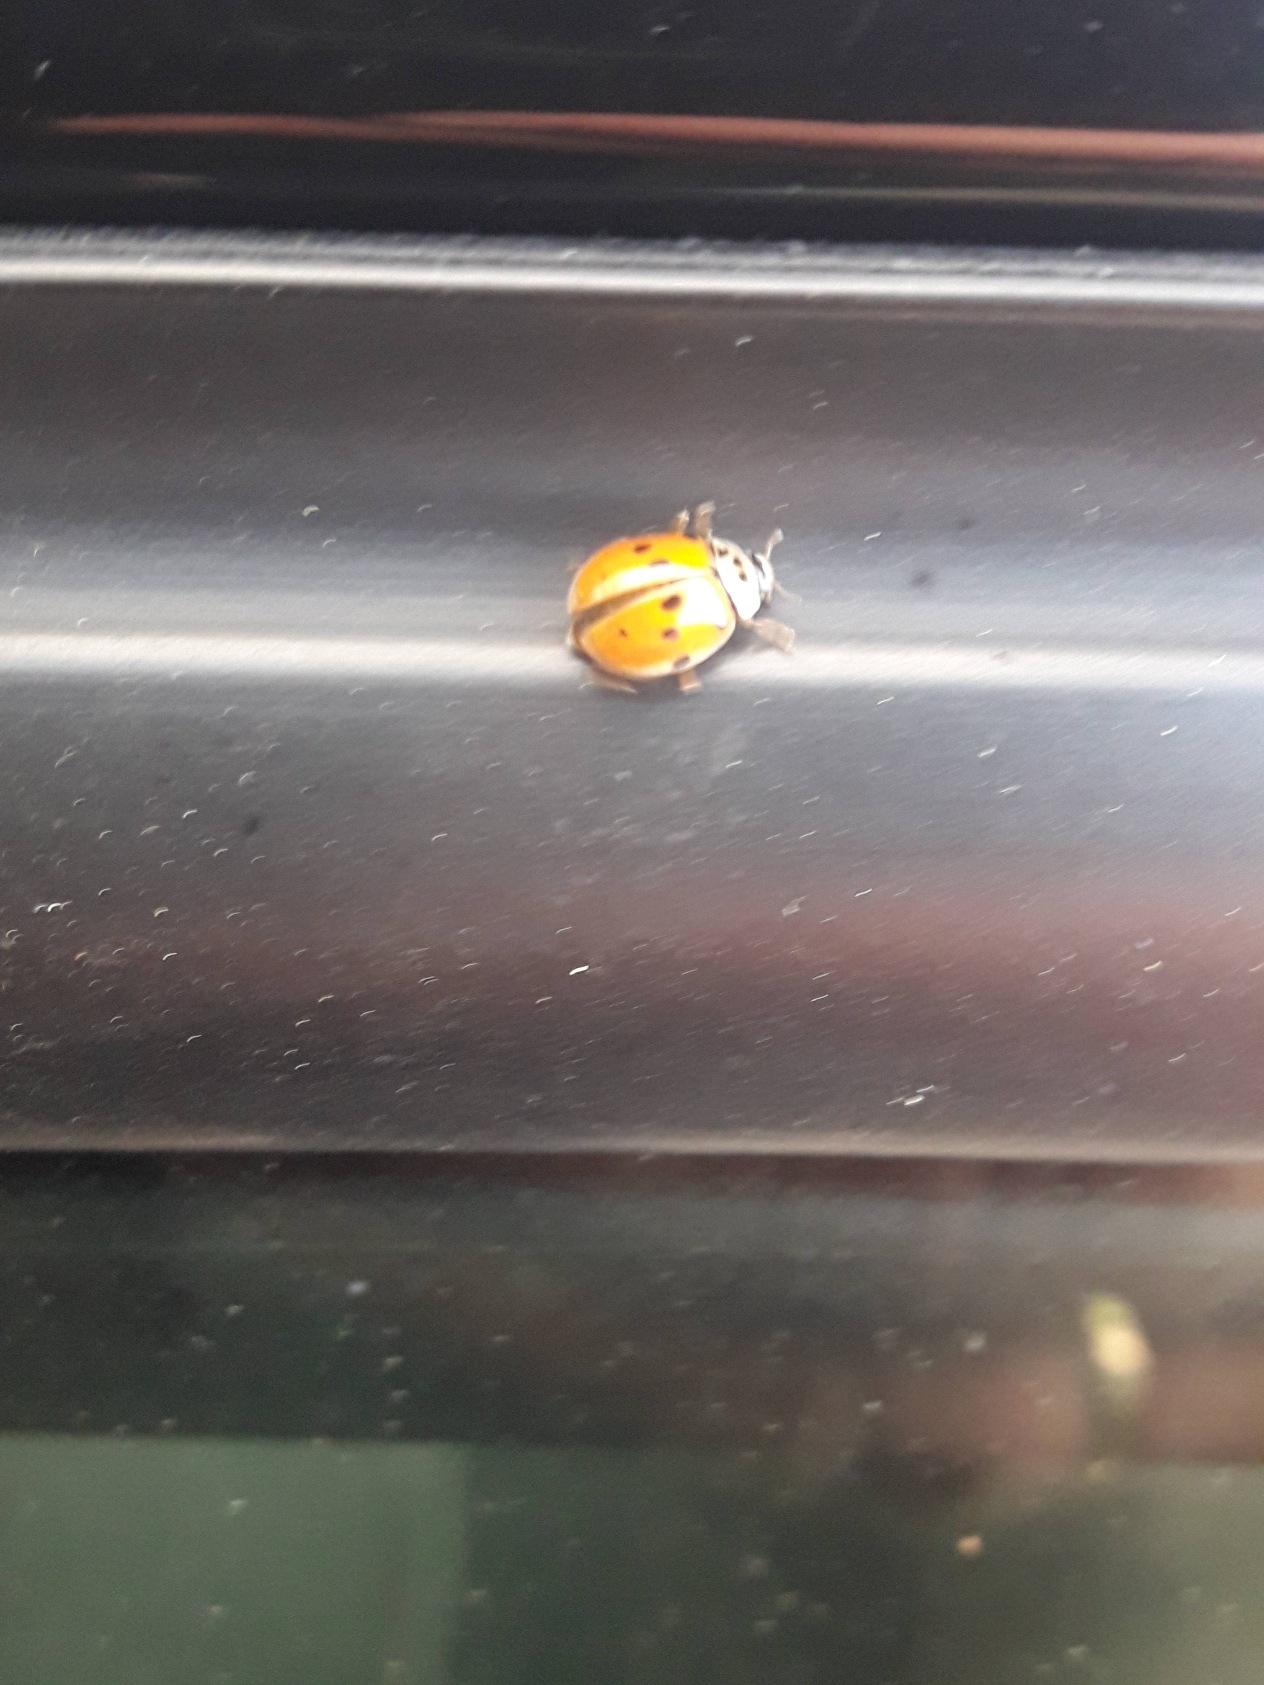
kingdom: Animalia
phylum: Arthropoda
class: Insecta
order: Coleoptera
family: Coccinellidae
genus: Adalia
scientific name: Adalia decempunctata
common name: Tiplettet mariehøne
